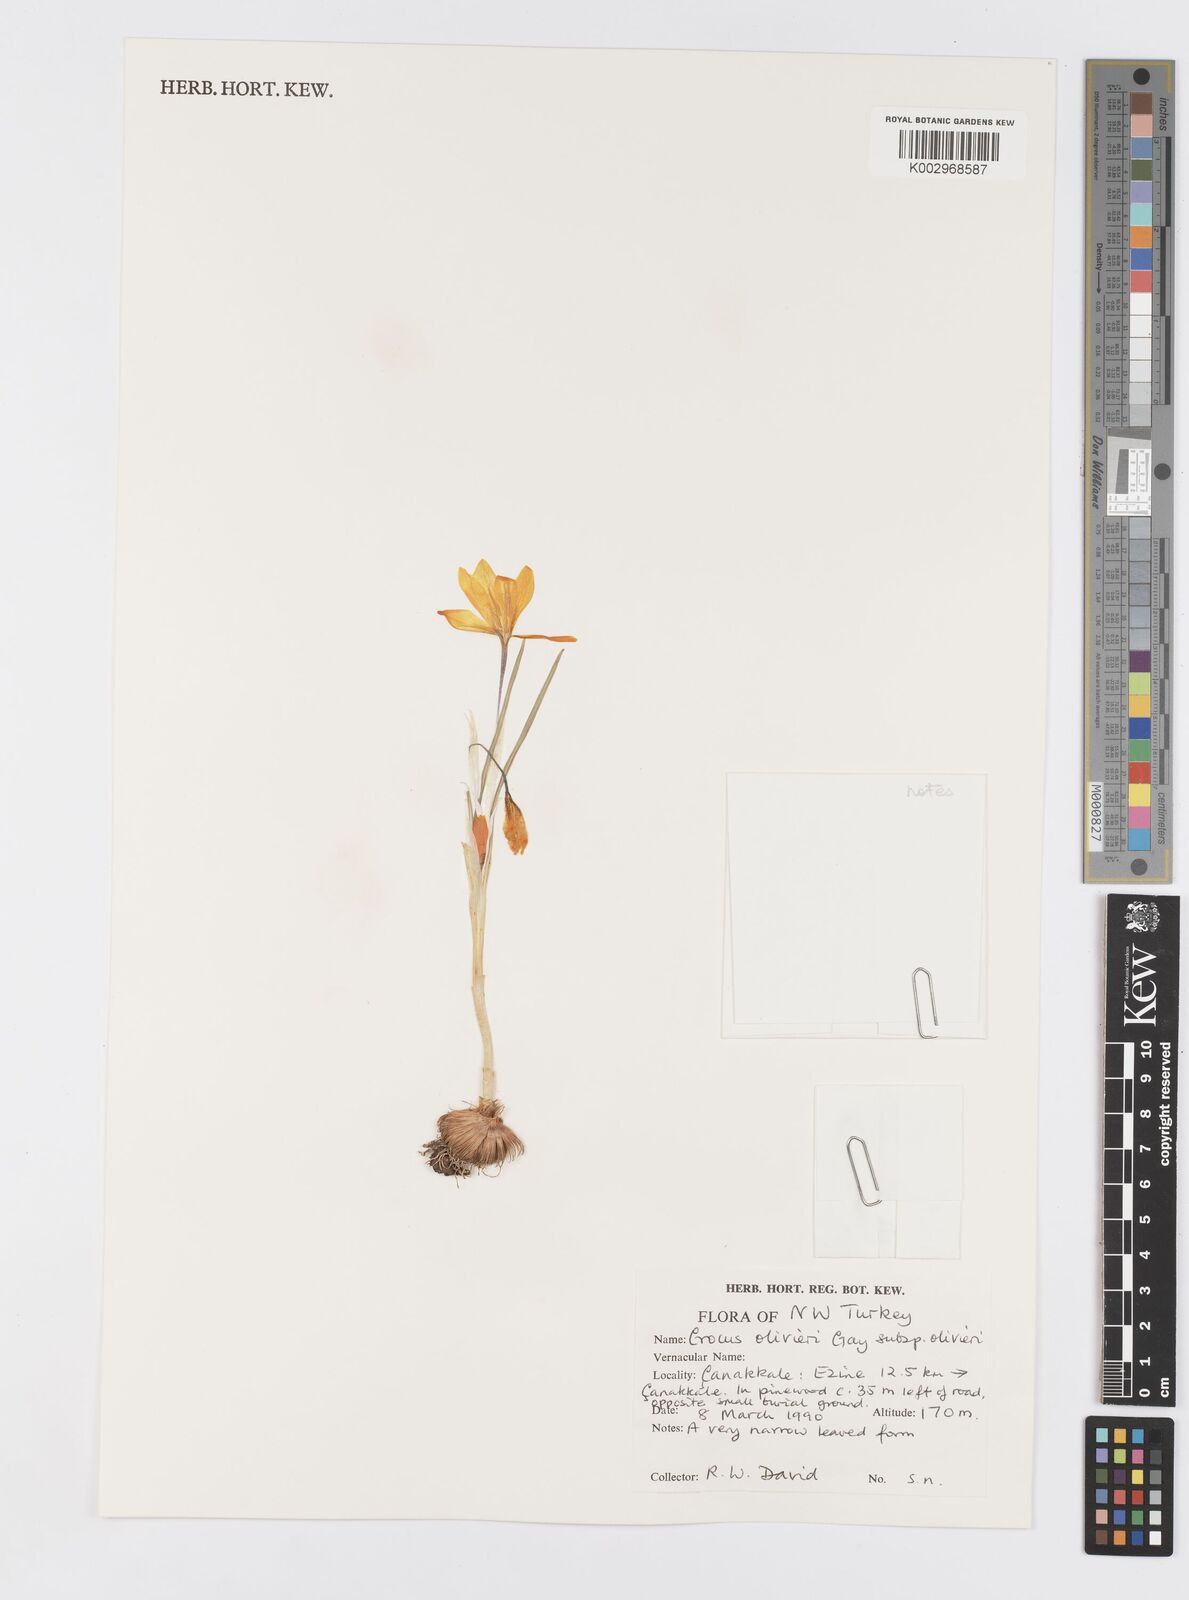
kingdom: Plantae
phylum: Tracheophyta
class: Liliopsida
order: Asparagales
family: Iridaceae
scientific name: Iridaceae
